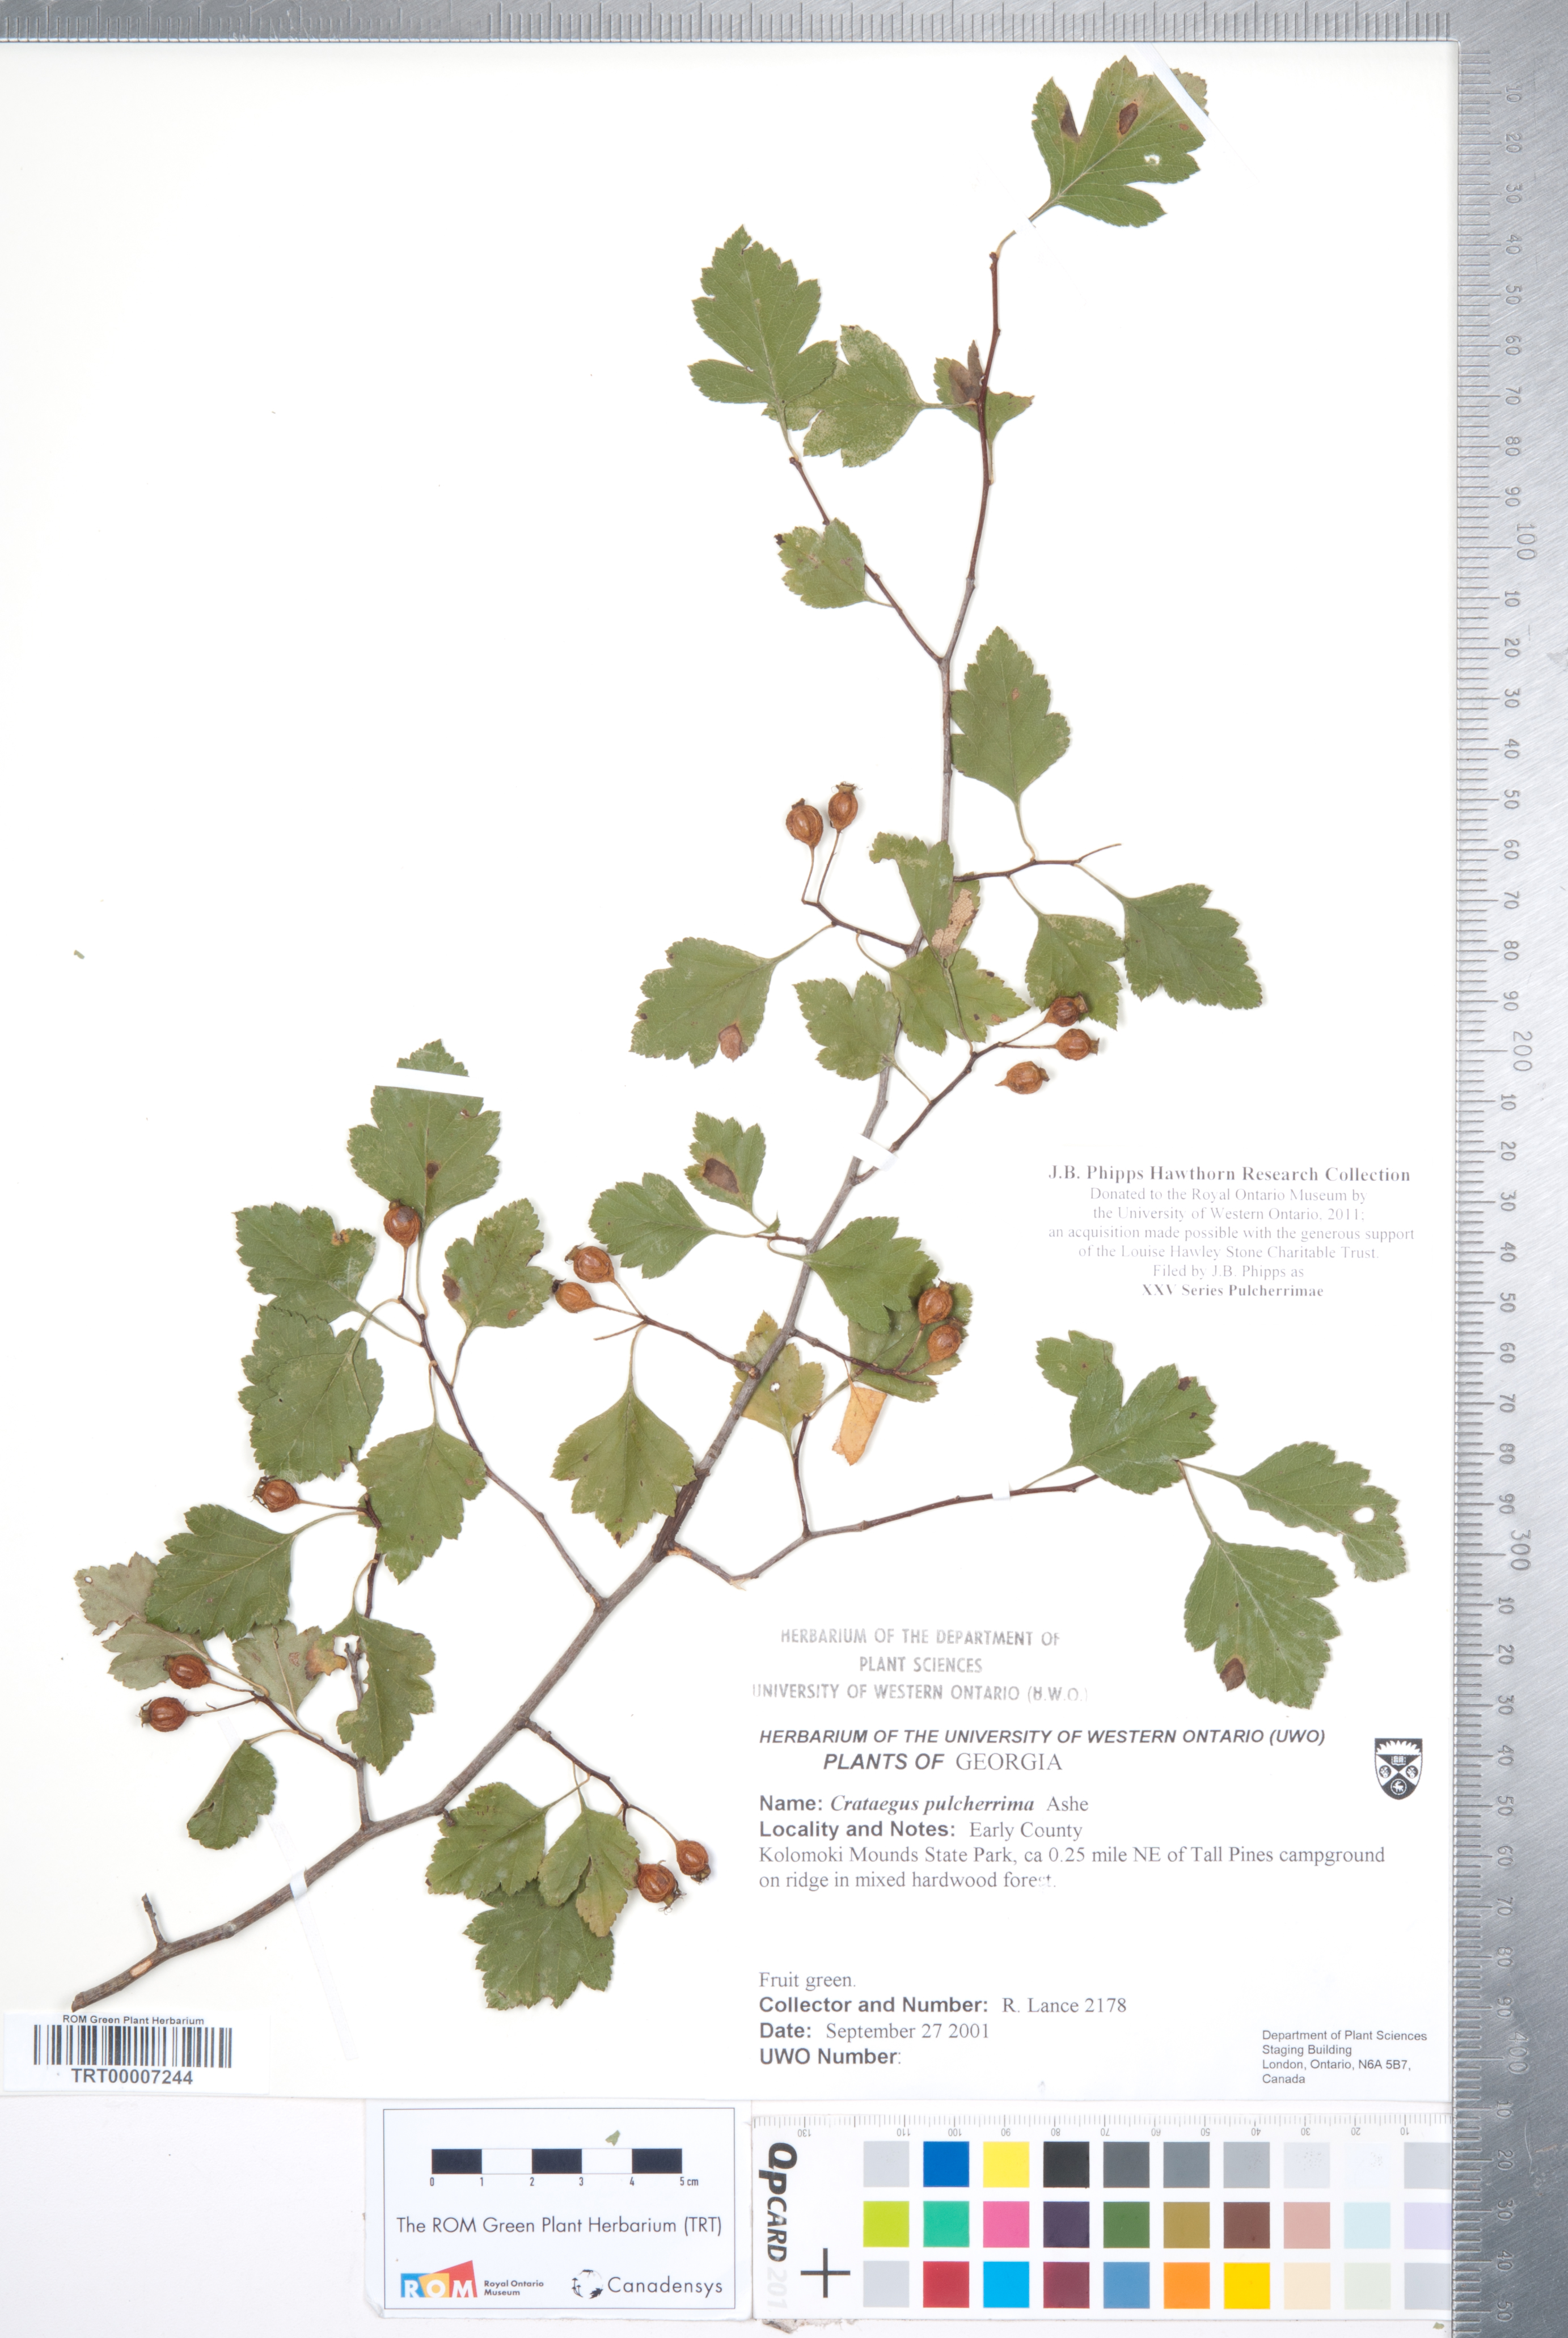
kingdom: Plantae
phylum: Tracheophyta
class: Magnoliopsida
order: Rosales
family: Rosaceae
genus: Crataegus
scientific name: Crataegus
